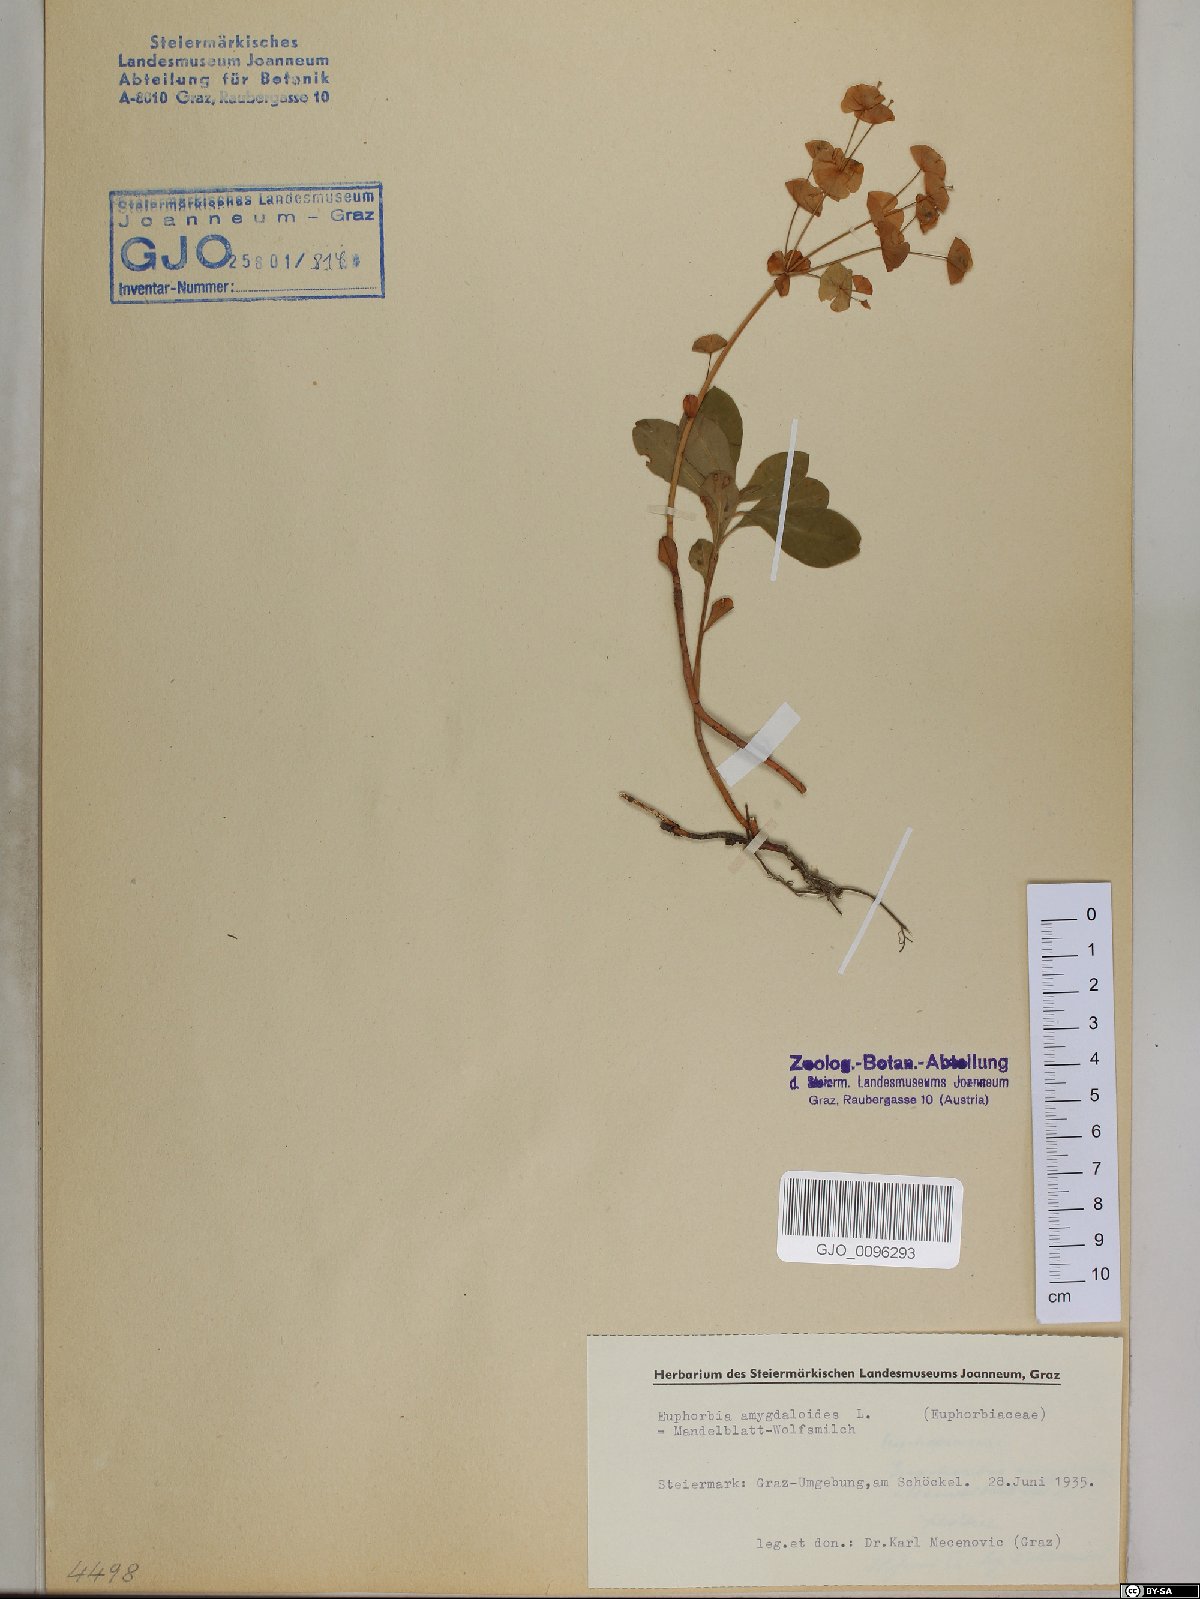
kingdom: Plantae
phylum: Tracheophyta
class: Magnoliopsida
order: Malpighiales
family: Euphorbiaceae
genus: Euphorbia
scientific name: Euphorbia amygdaloides
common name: Wood spurge
